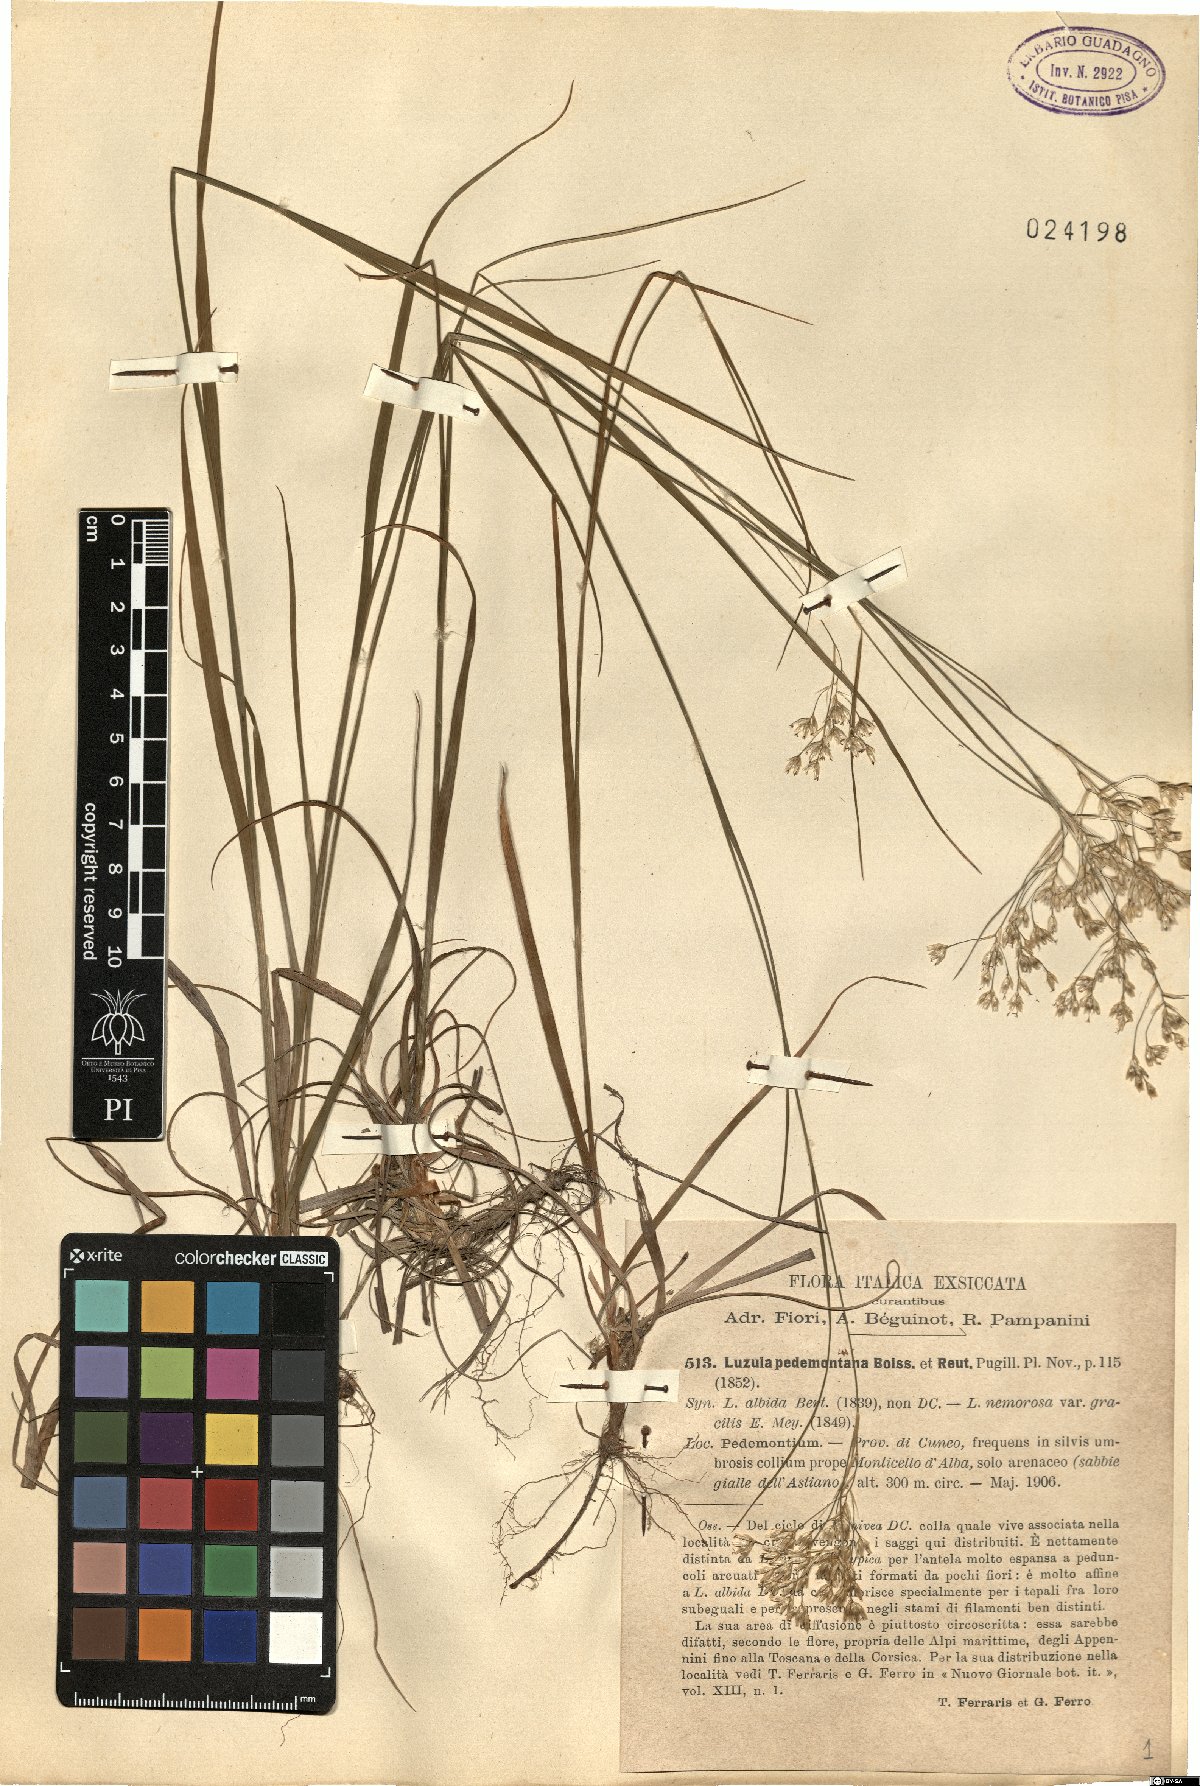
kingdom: Plantae
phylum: Tracheophyta
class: Liliopsida
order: Poales
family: Juncaceae
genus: Luzula
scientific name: Luzula pedemontana
